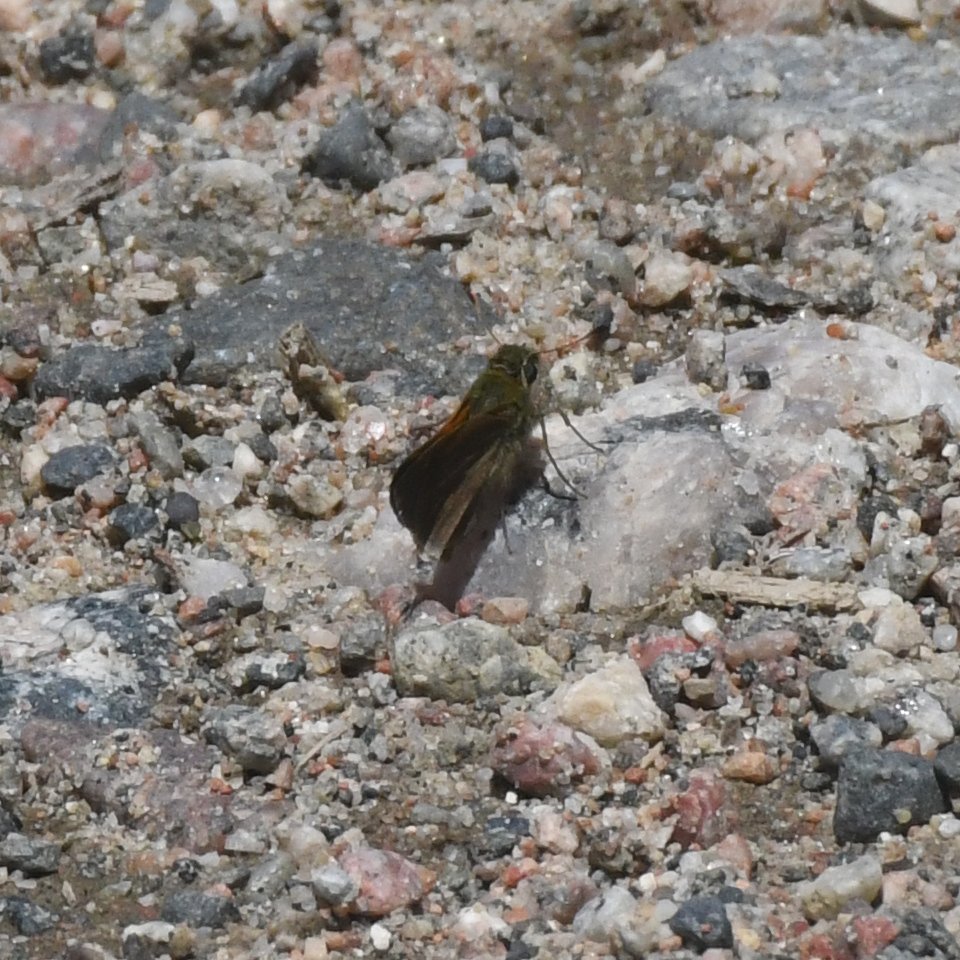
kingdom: Animalia
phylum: Arthropoda
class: Insecta
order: Lepidoptera
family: Hesperiidae
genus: Polites
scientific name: Polites themistocles
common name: Tawny-edged Skipper
